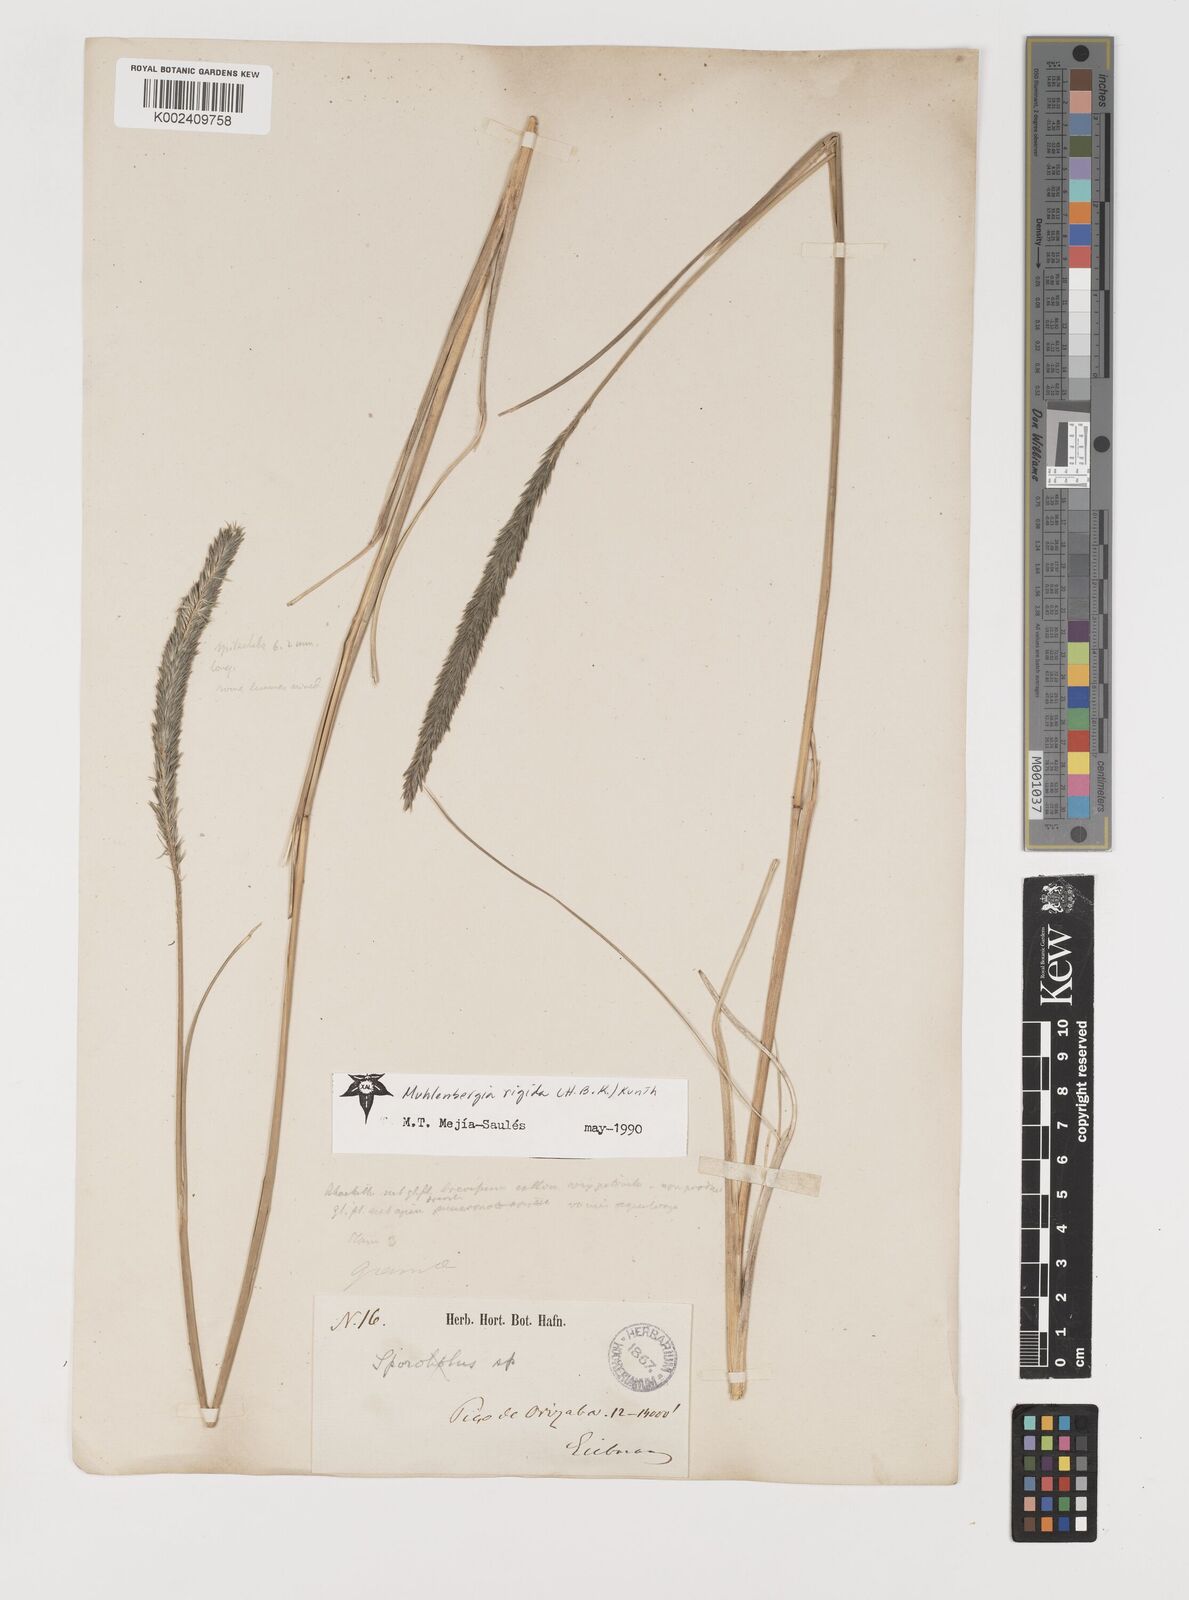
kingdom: Plantae
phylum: Tracheophyta
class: Liliopsida
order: Poales
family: Poaceae
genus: Muhlenbergia
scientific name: Muhlenbergia nigra
